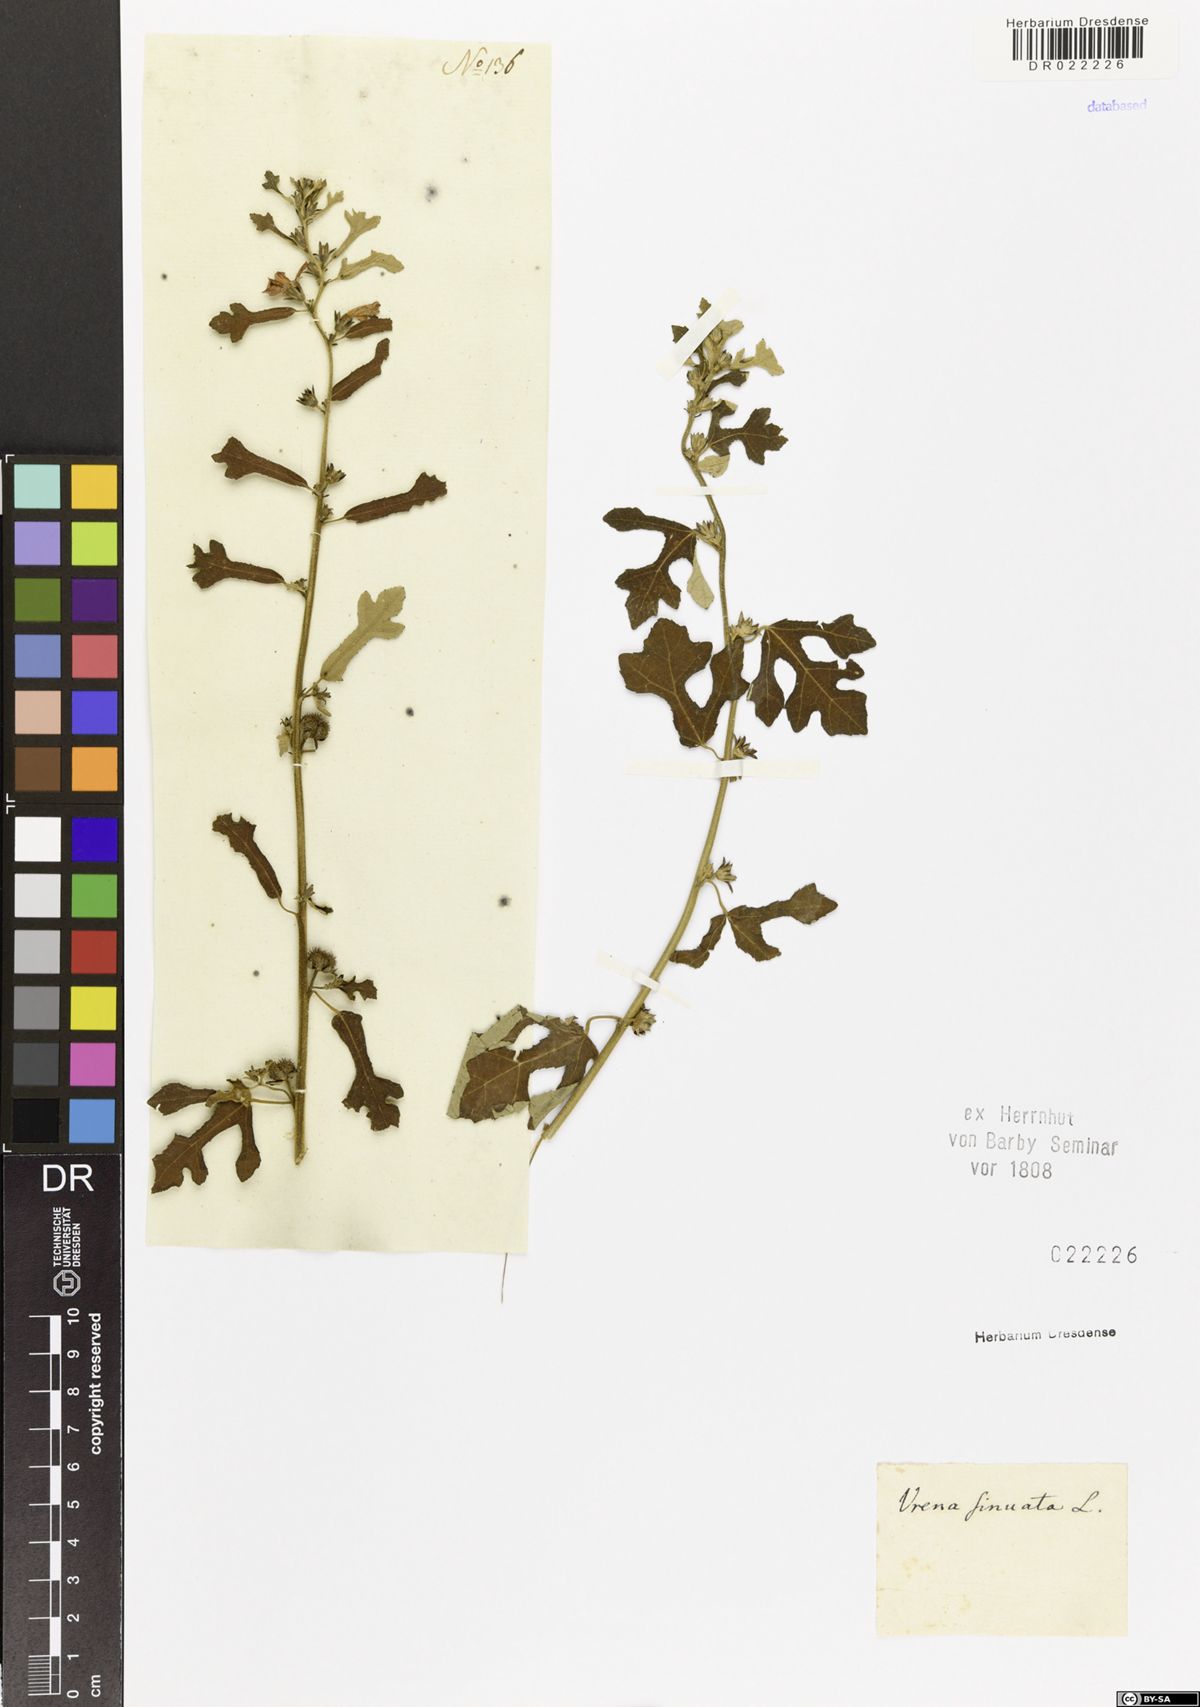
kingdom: Plantae
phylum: Tracheophyta
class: Magnoliopsida
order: Malvales
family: Malvaceae
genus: Urena
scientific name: Urena procumbens
